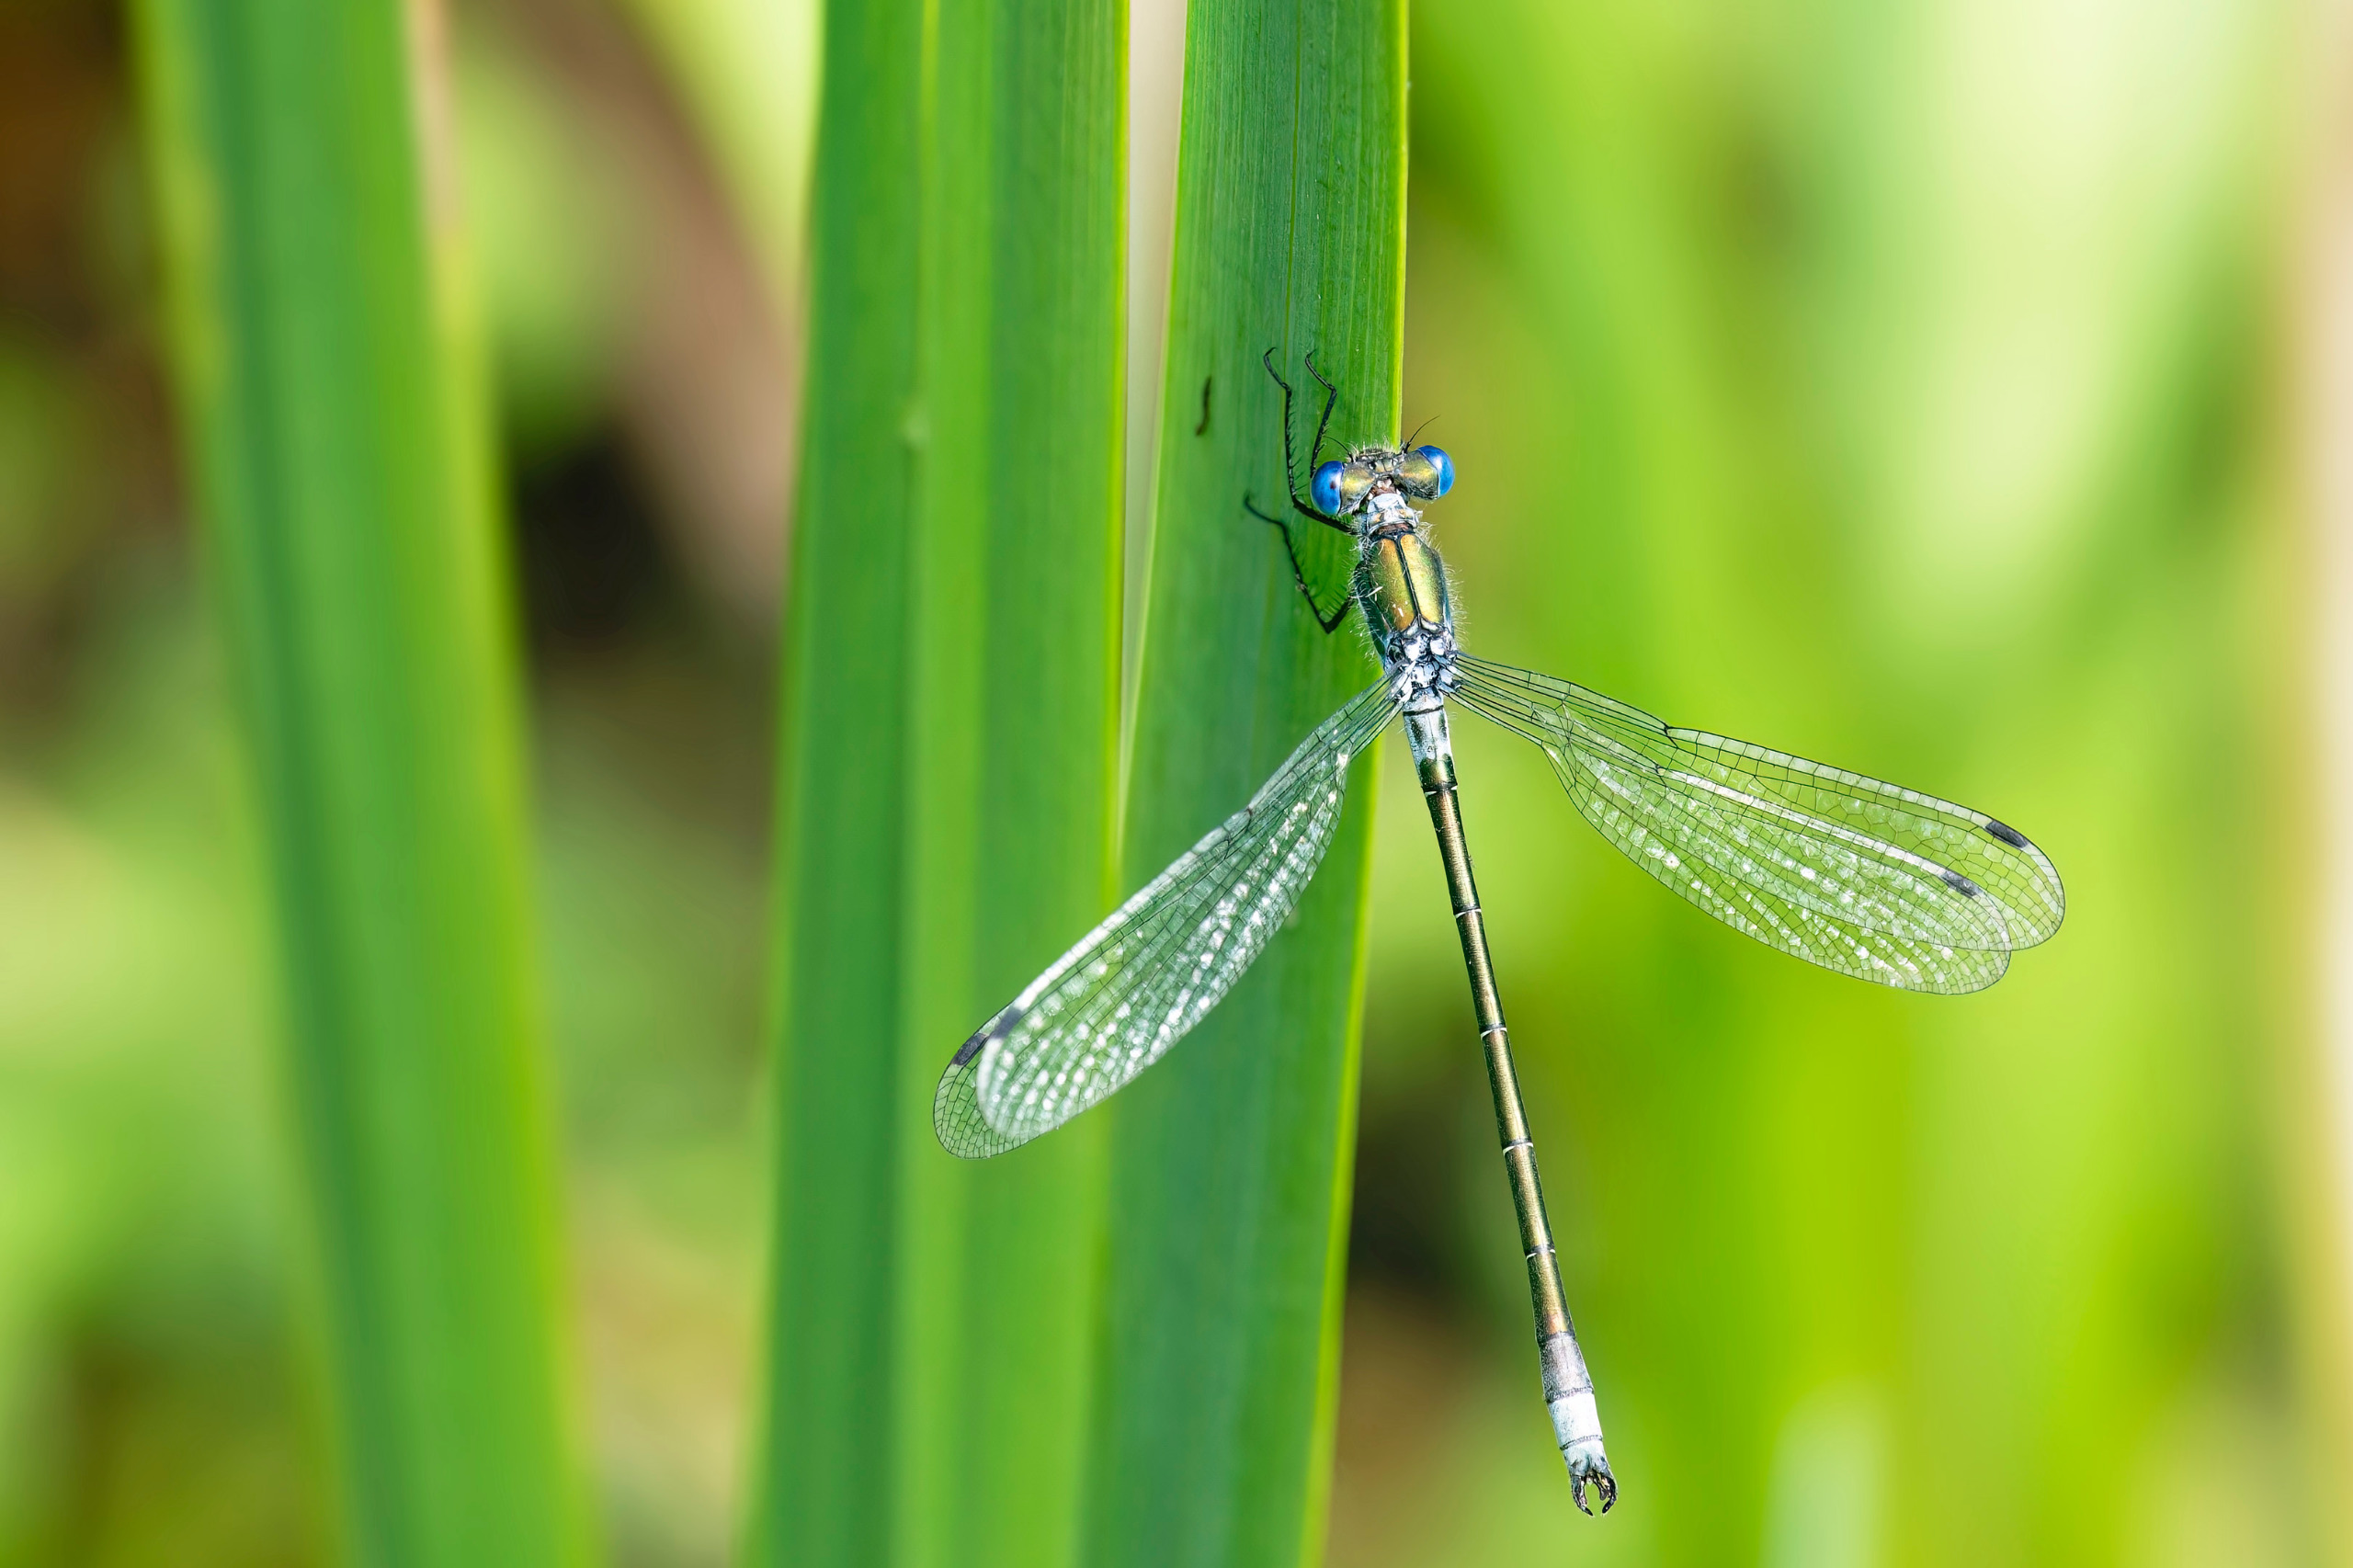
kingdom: Animalia
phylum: Arthropoda
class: Insecta
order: Odonata
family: Lestidae
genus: Lestes
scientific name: Lestes dryas
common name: Sortmærket kobbervandnymfe
